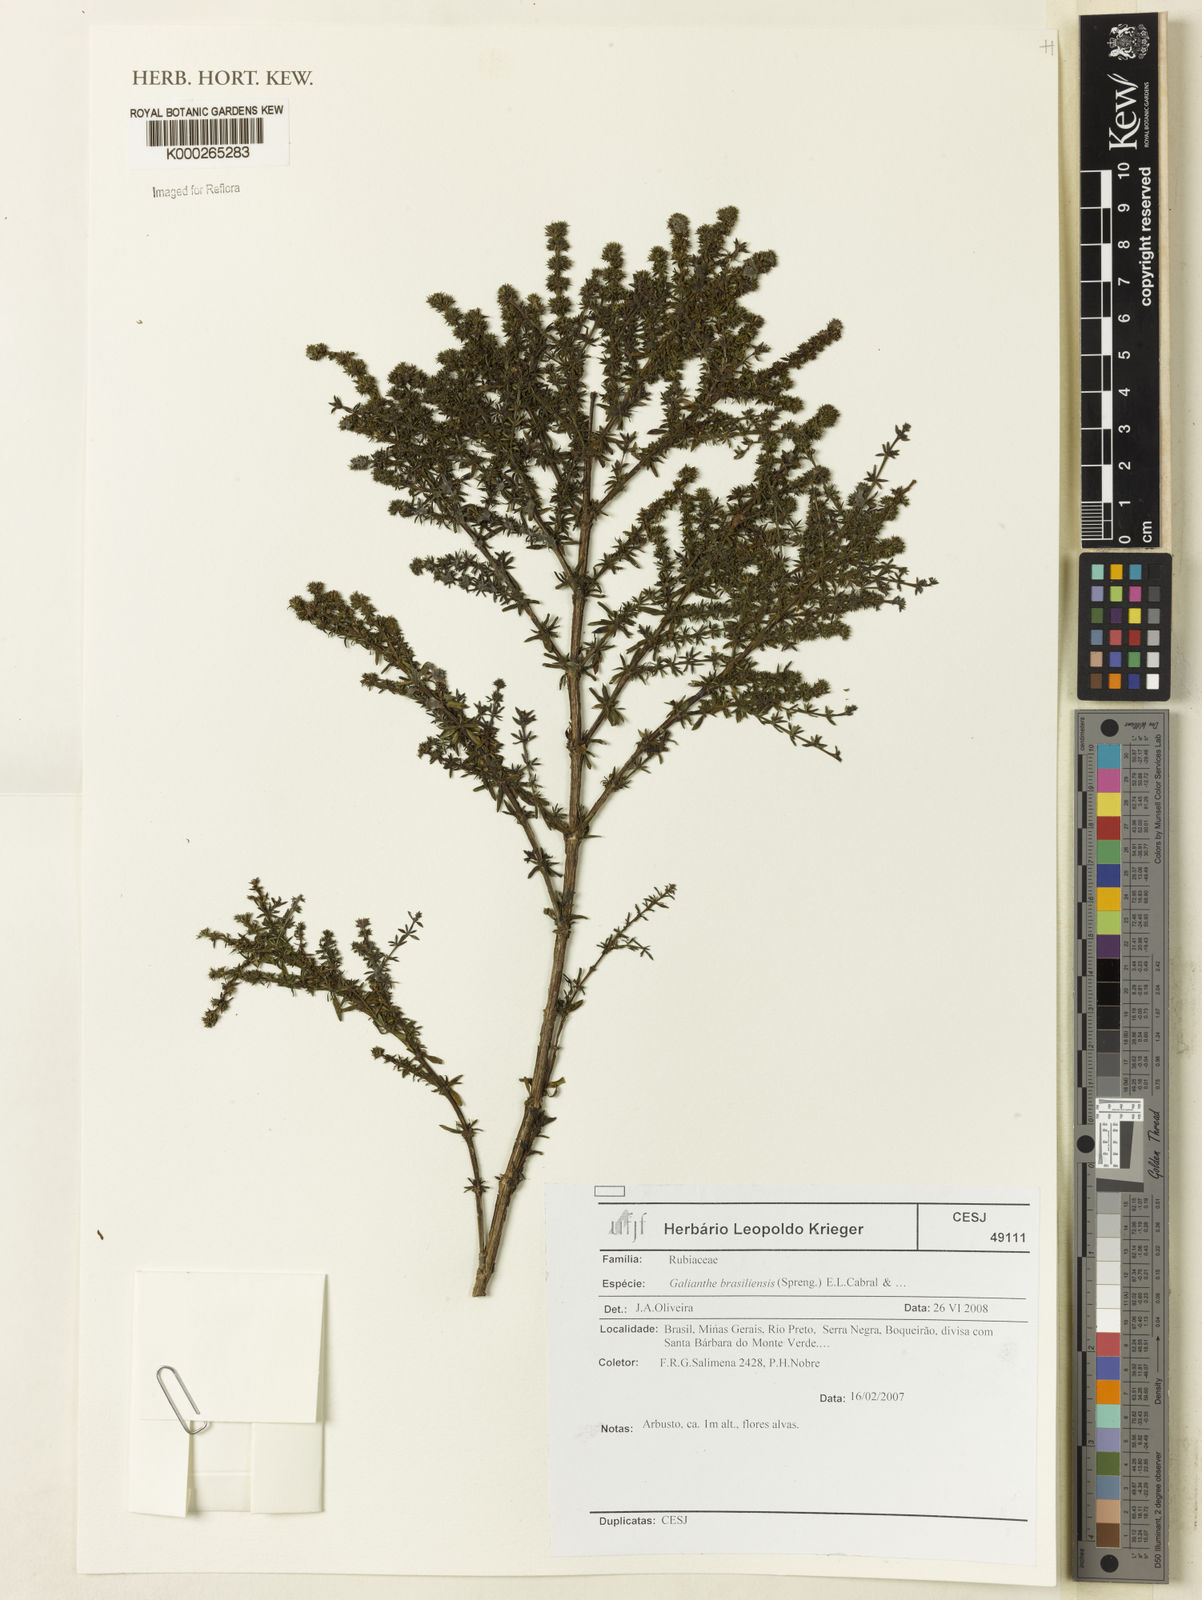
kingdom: Plantae
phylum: Tracheophyta
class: Magnoliopsida
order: Gentianales
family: Rubiaceae
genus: Galianthe
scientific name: Galianthe brasiliensis
